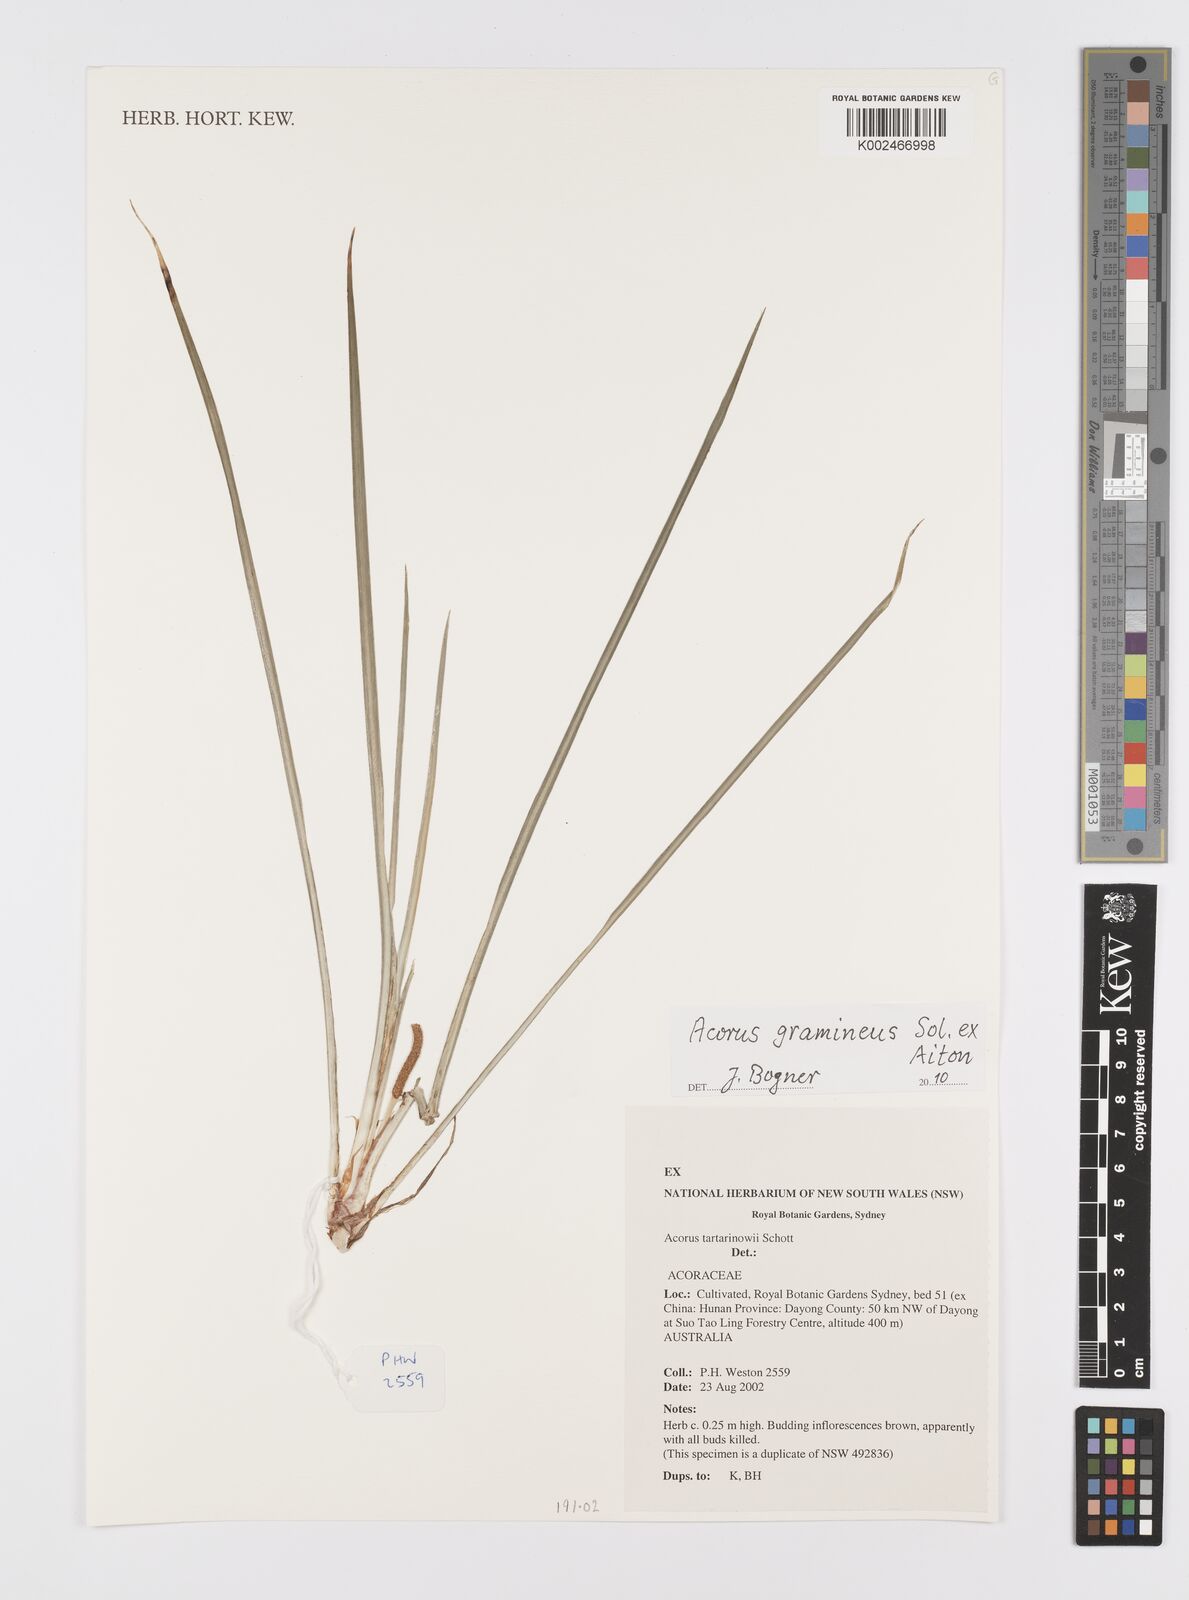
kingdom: Plantae
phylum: Tracheophyta
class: Liliopsida
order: Acorales
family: Acoraceae
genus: Acorus
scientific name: Acorus calamus
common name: Sweet-flag
